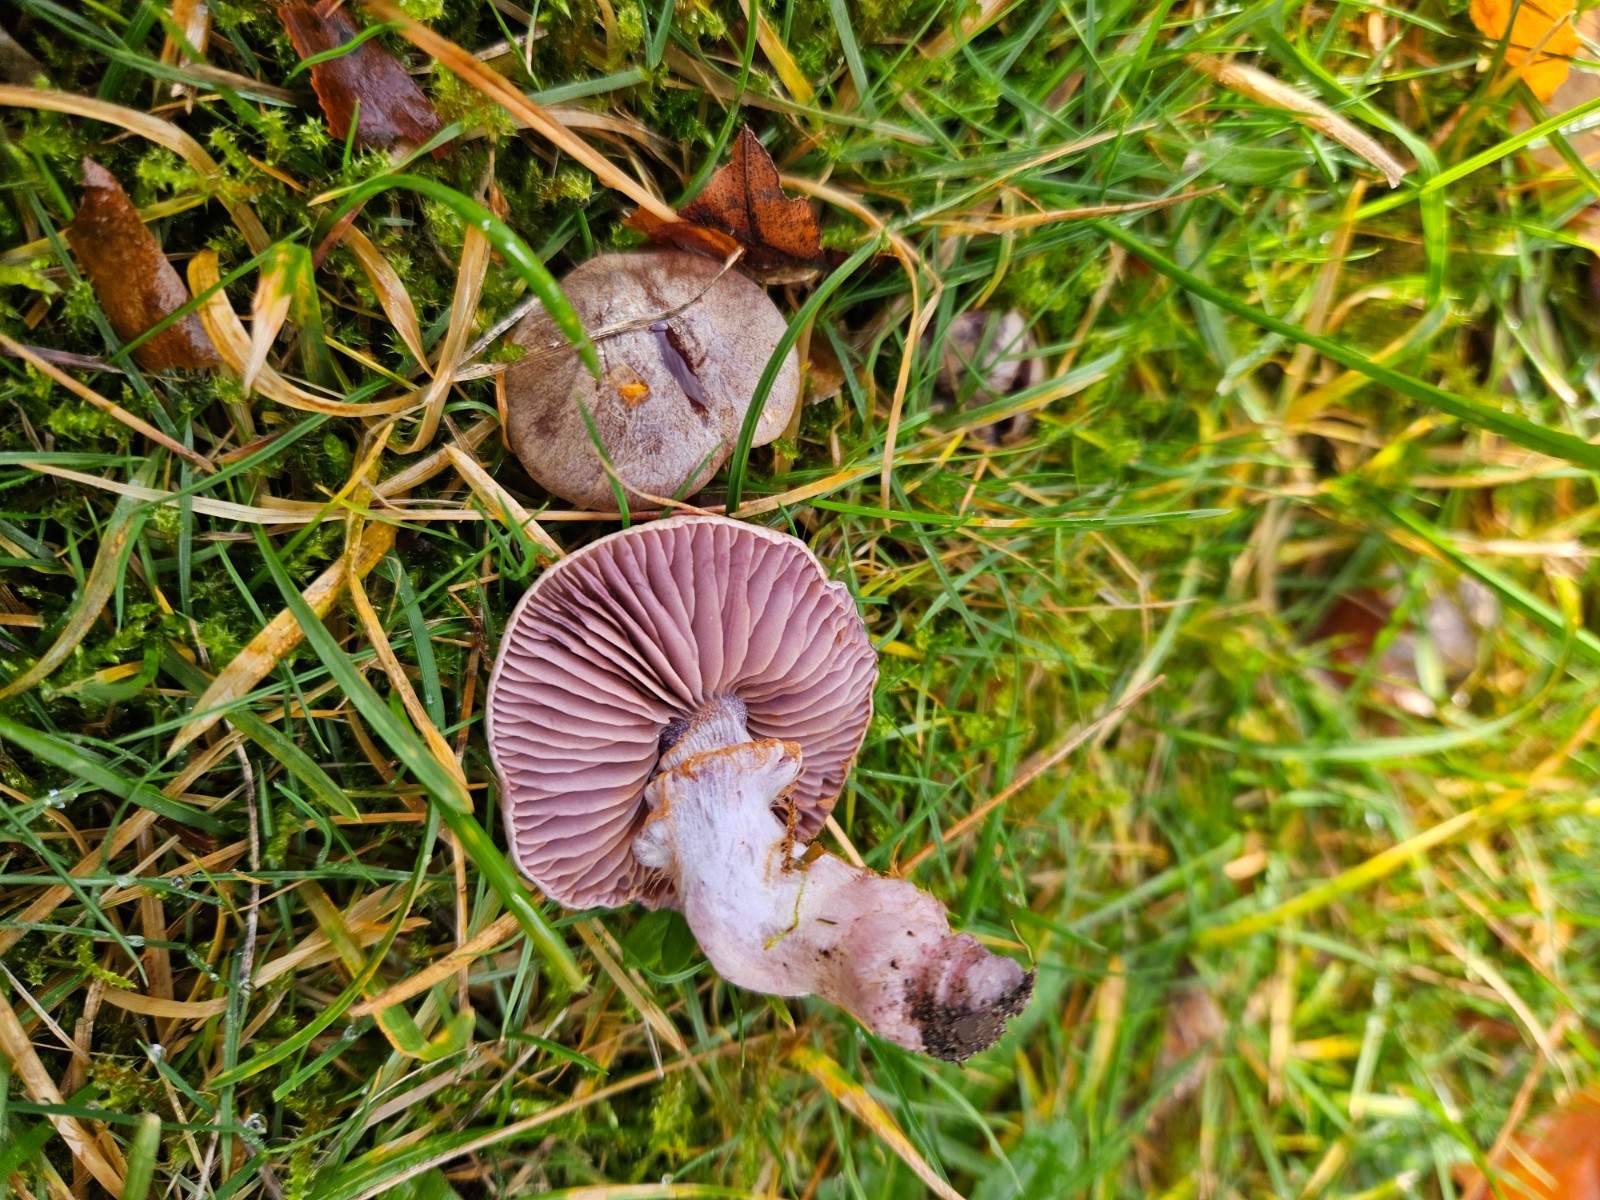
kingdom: Fungi
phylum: Basidiomycota
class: Agaricomycetes
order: Agaricales
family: Cortinariaceae
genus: Cortinarius
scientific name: Cortinarius
